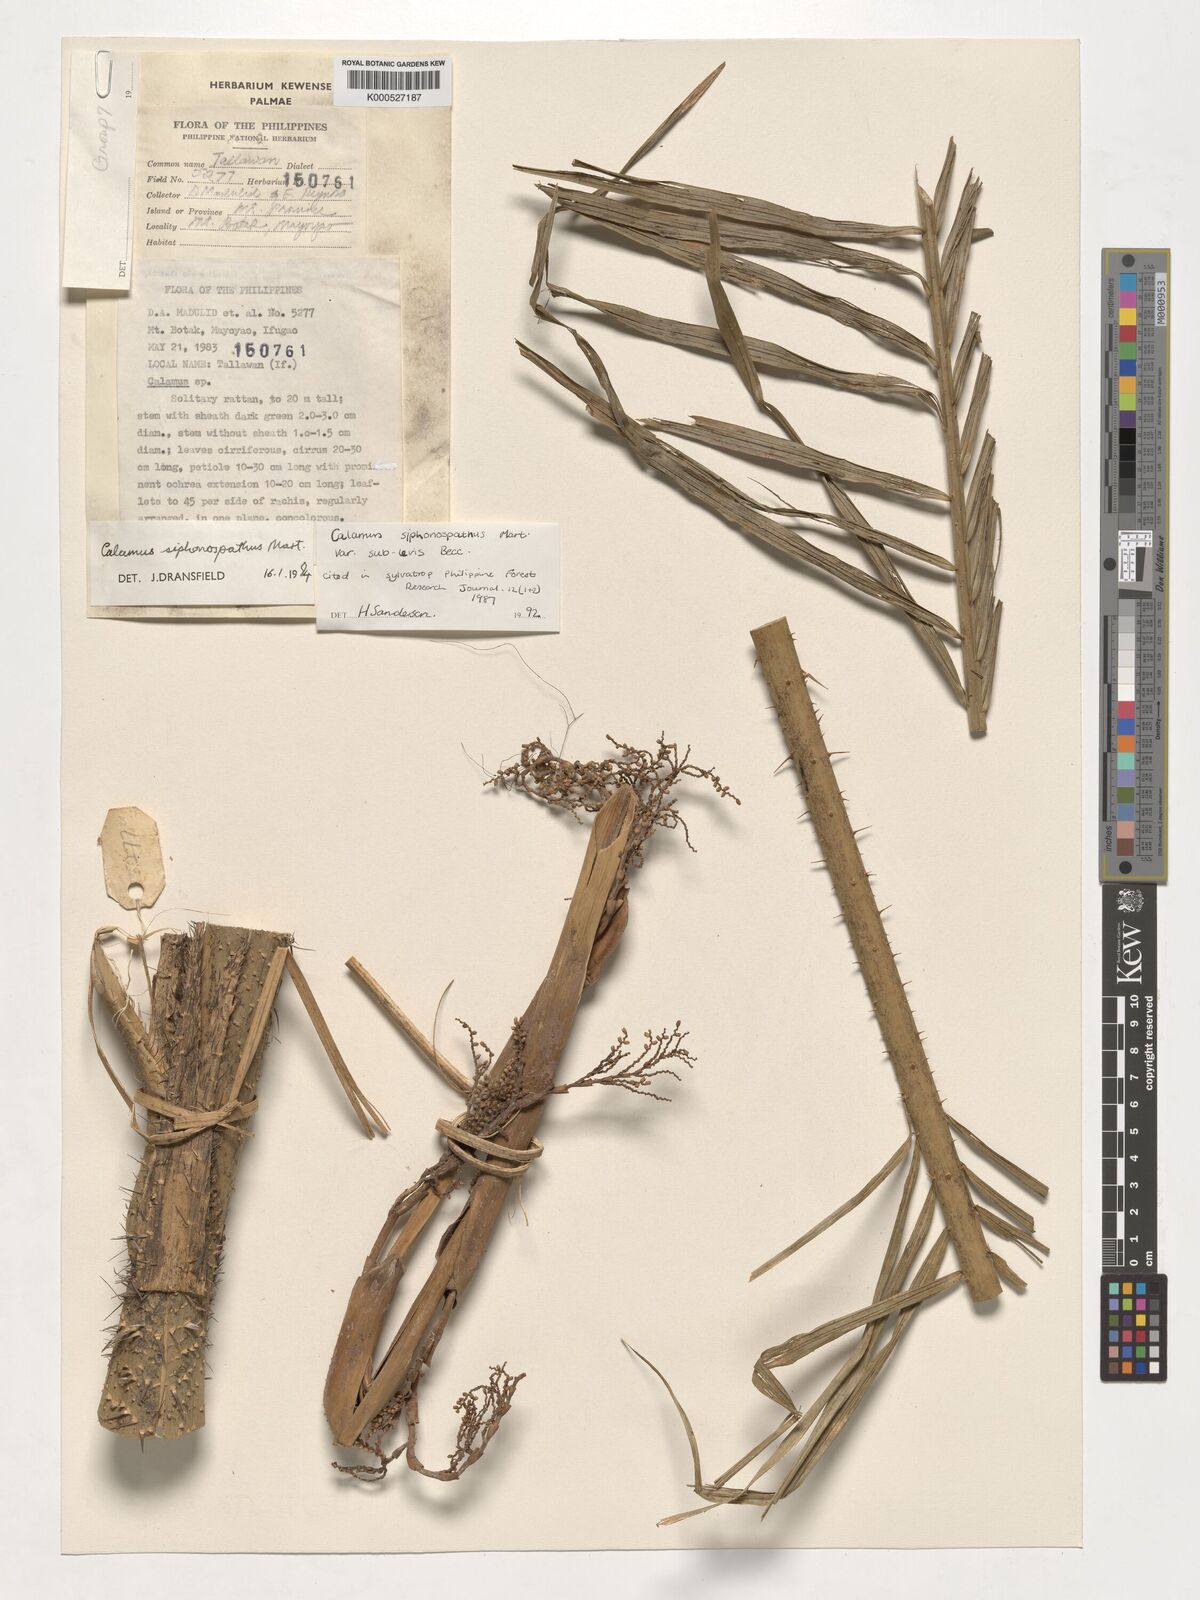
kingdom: Plantae
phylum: Tracheophyta
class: Liliopsida
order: Arecales
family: Arecaceae
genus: Calamus
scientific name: Calamus siphonospathus
